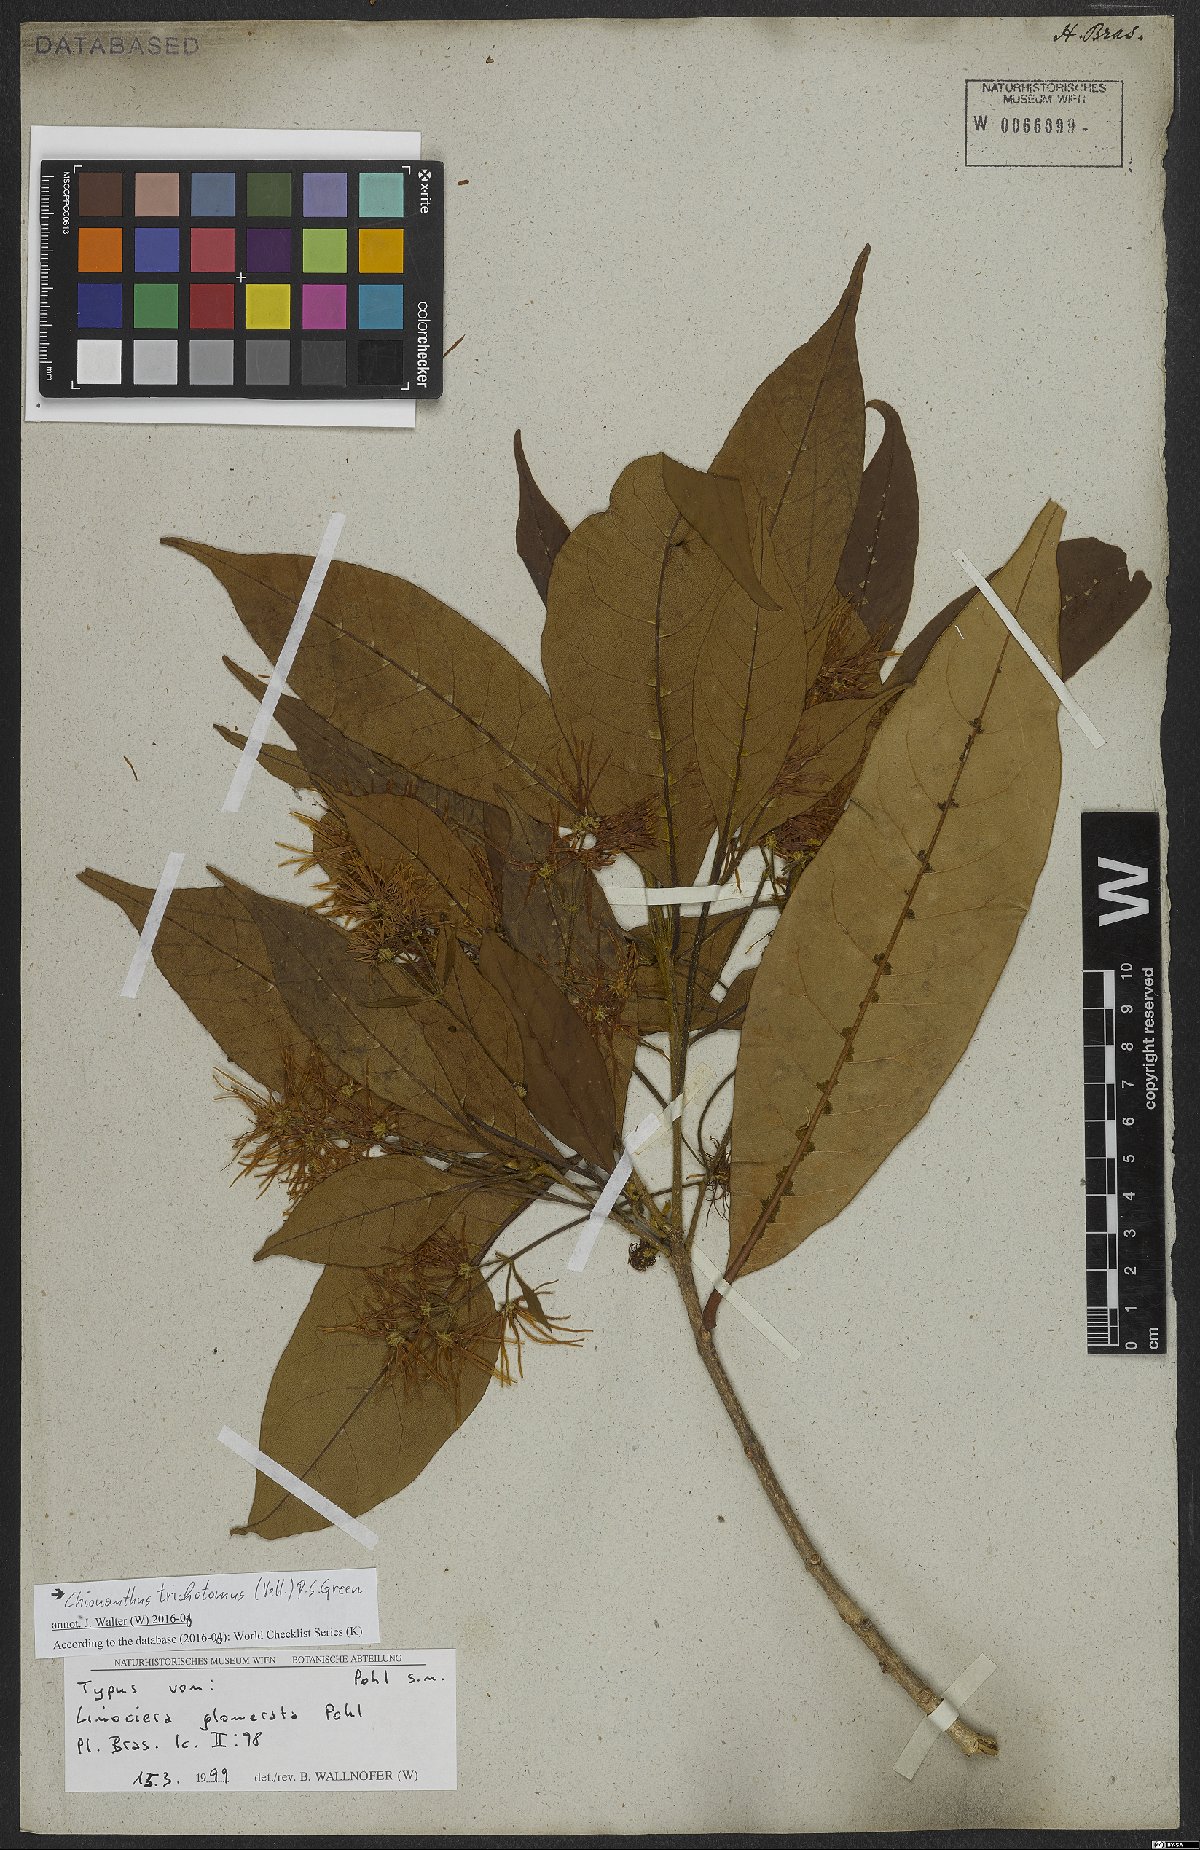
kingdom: Plantae
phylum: Tracheophyta
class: Magnoliopsida
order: Lamiales
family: Oleaceae
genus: Chionanthus
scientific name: Chionanthus trichotomus
